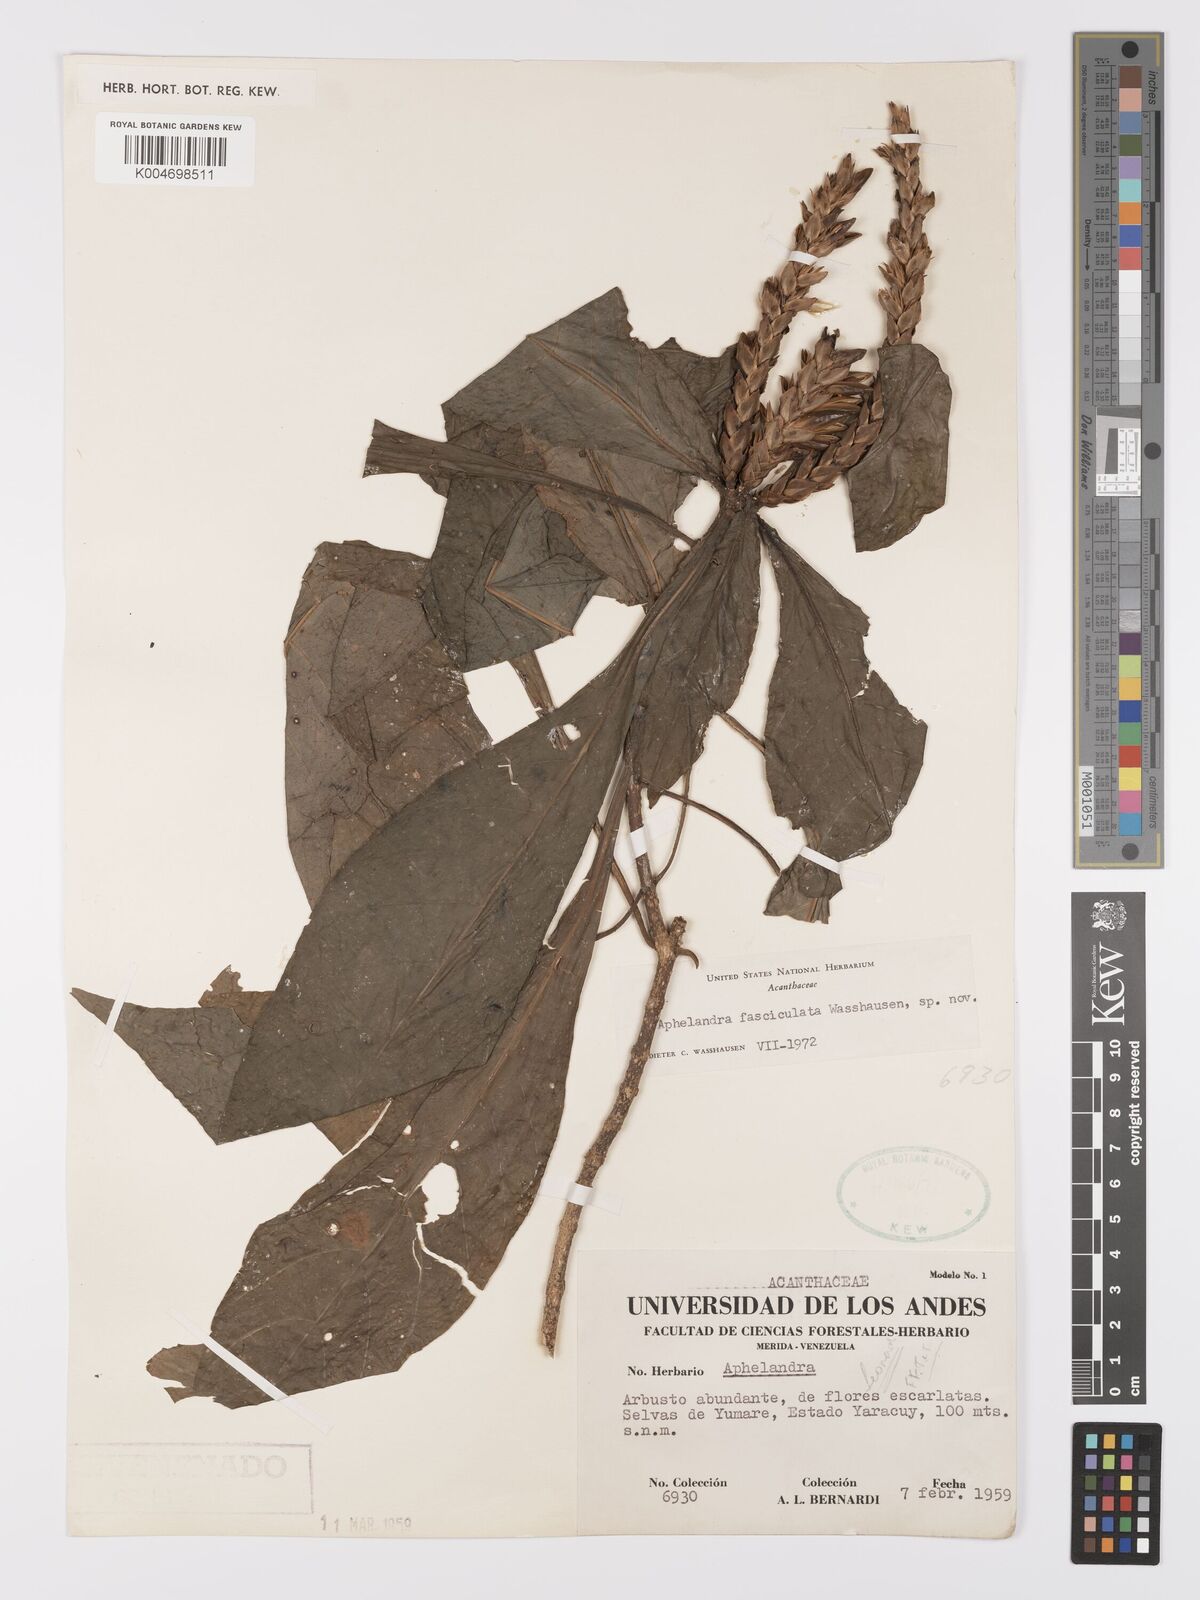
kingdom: Plantae
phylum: Tracheophyta
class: Magnoliopsida
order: Lamiales
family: Acanthaceae
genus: Aphelandra
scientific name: Aphelandra fasciculata
